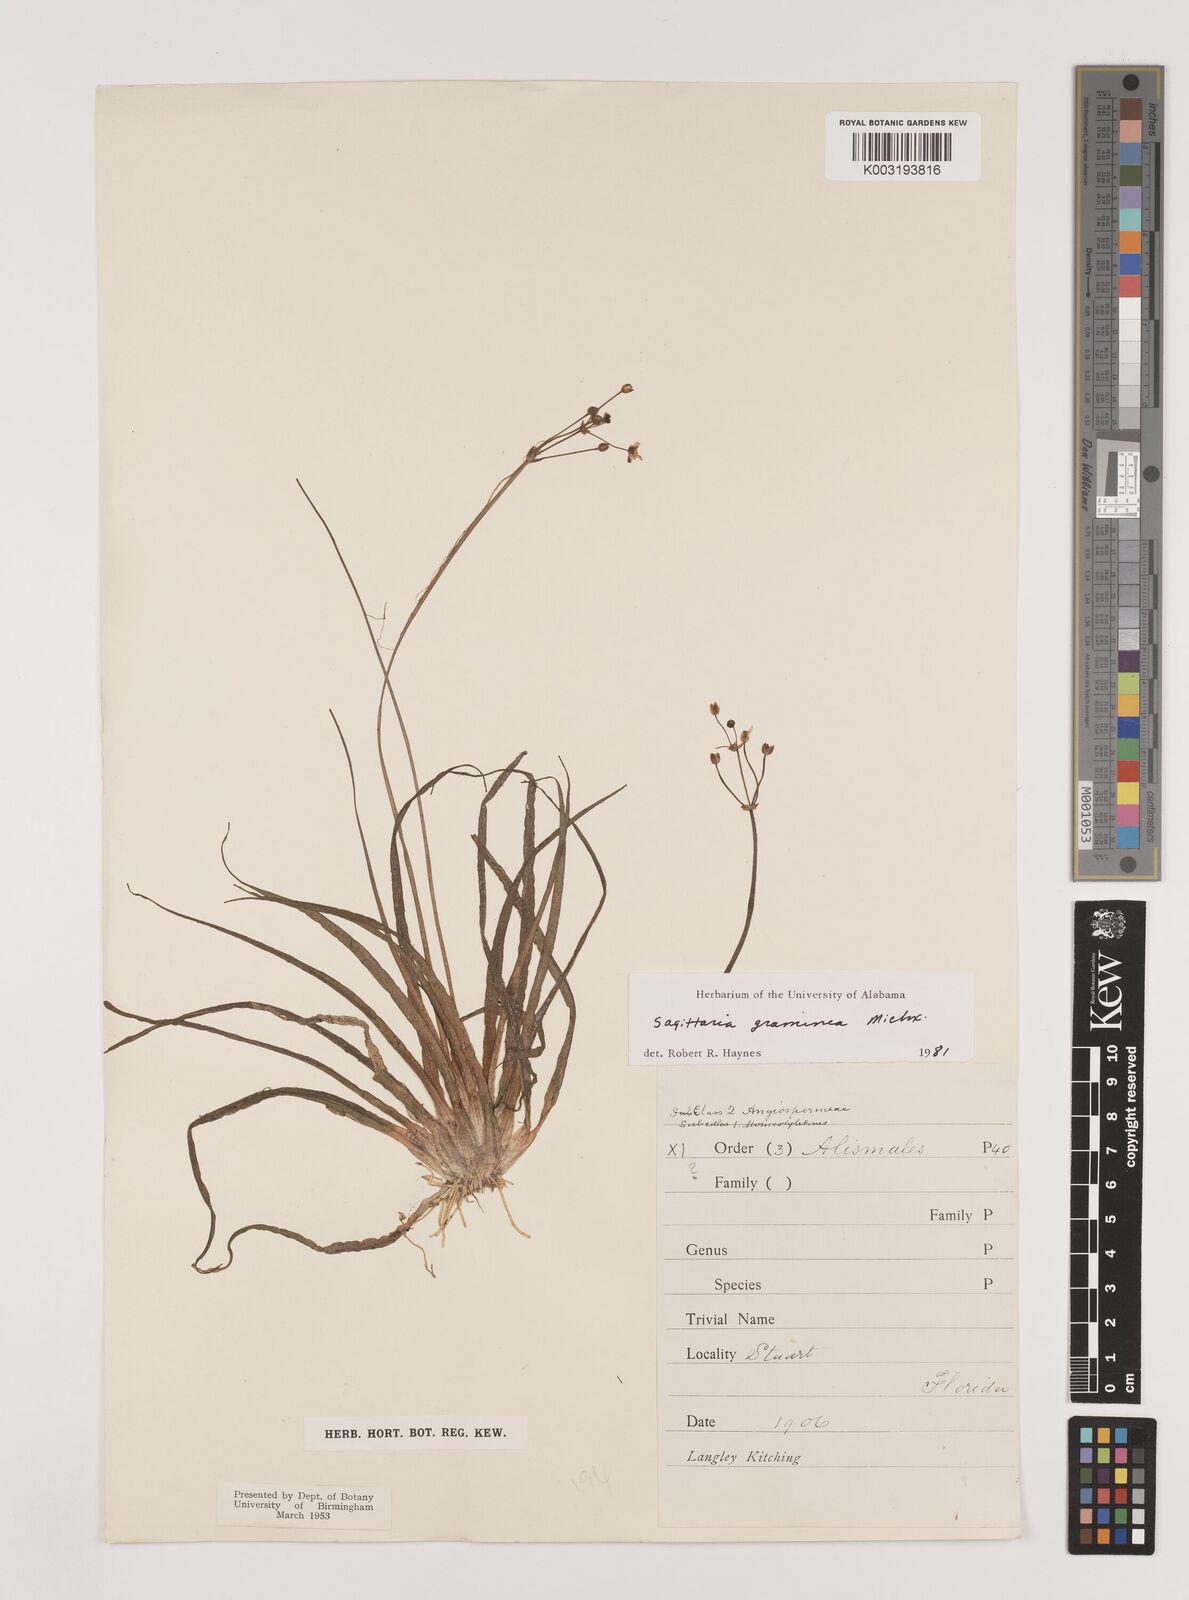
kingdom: Plantae
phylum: Tracheophyta
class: Liliopsida
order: Alismatales
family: Alismataceae
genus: Sagittaria
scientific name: Sagittaria graminea
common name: Grass-leaved arrowhead
